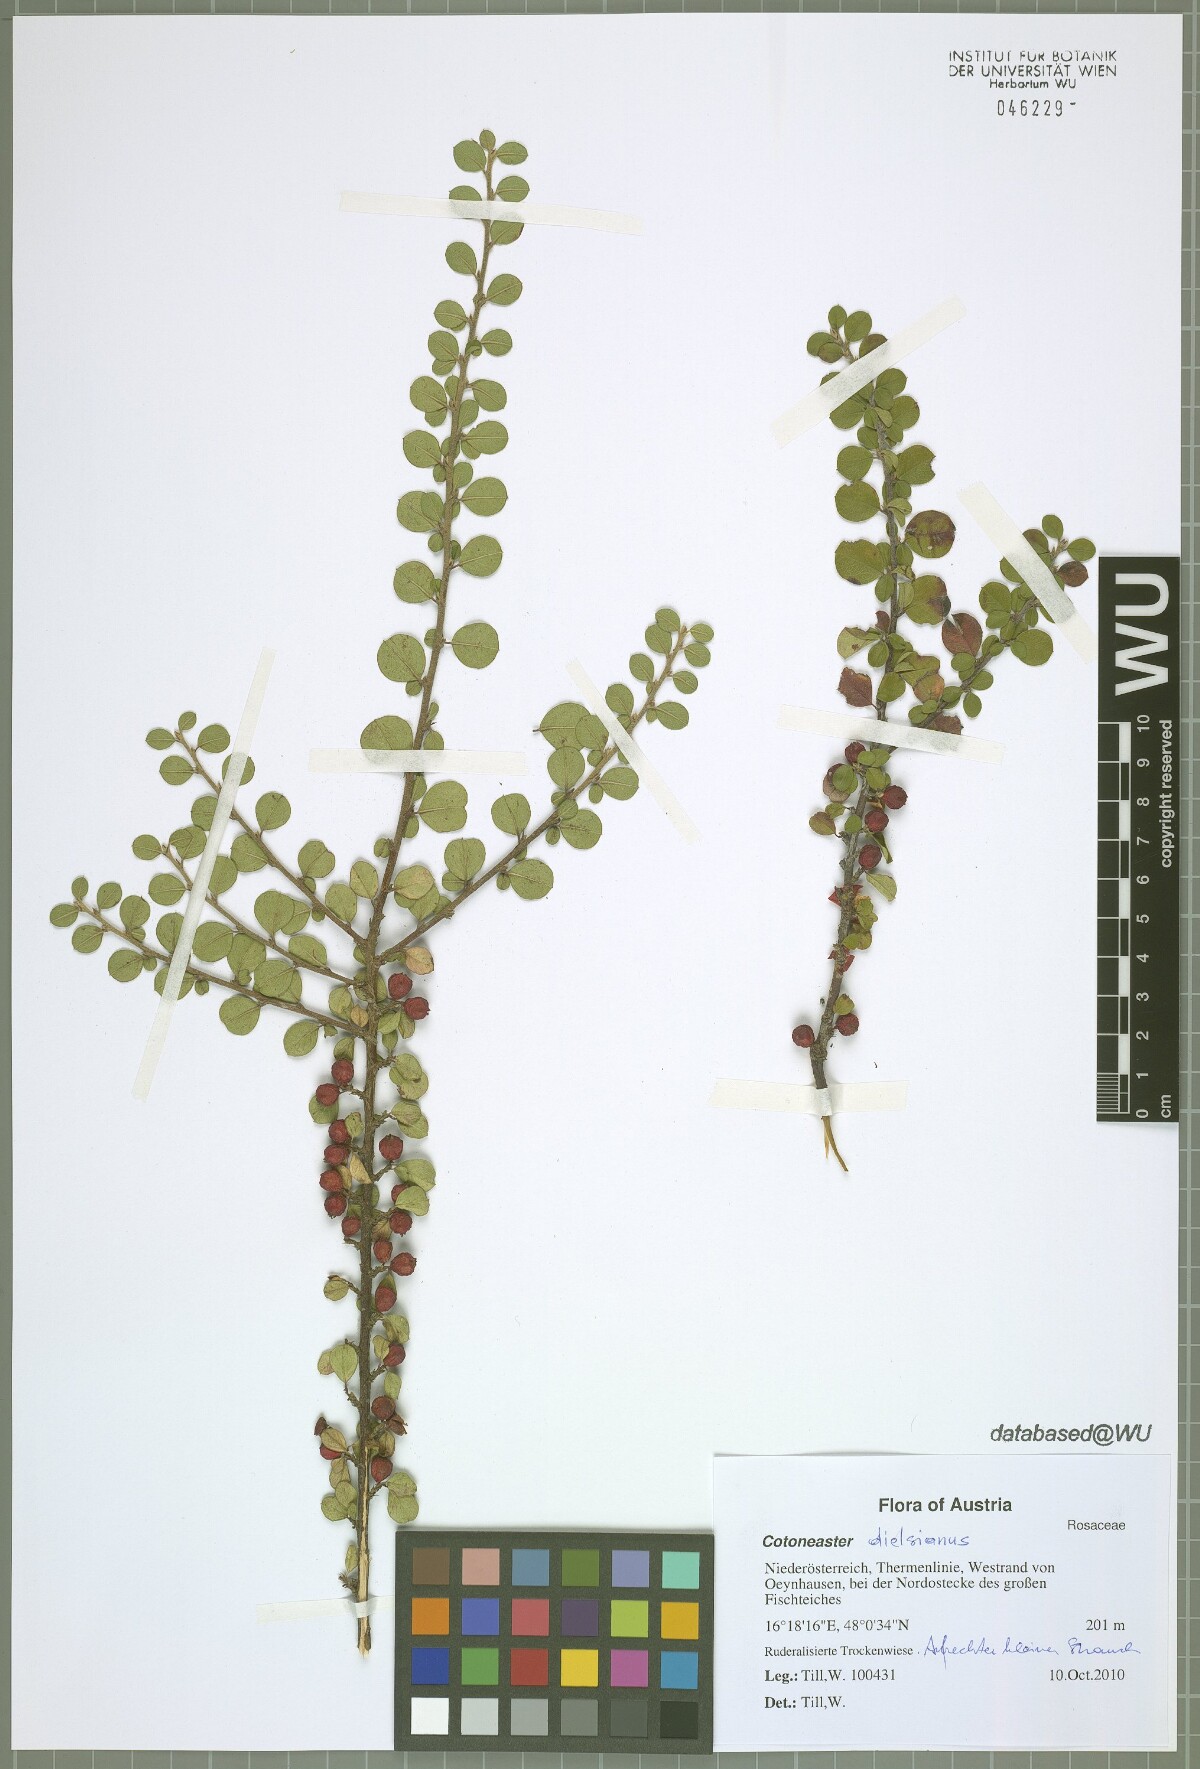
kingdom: Plantae
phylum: Tracheophyta
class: Magnoliopsida
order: Rosales
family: Rosaceae
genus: Cotoneaster
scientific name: Cotoneaster horizontalis
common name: Wall cotoneaster
